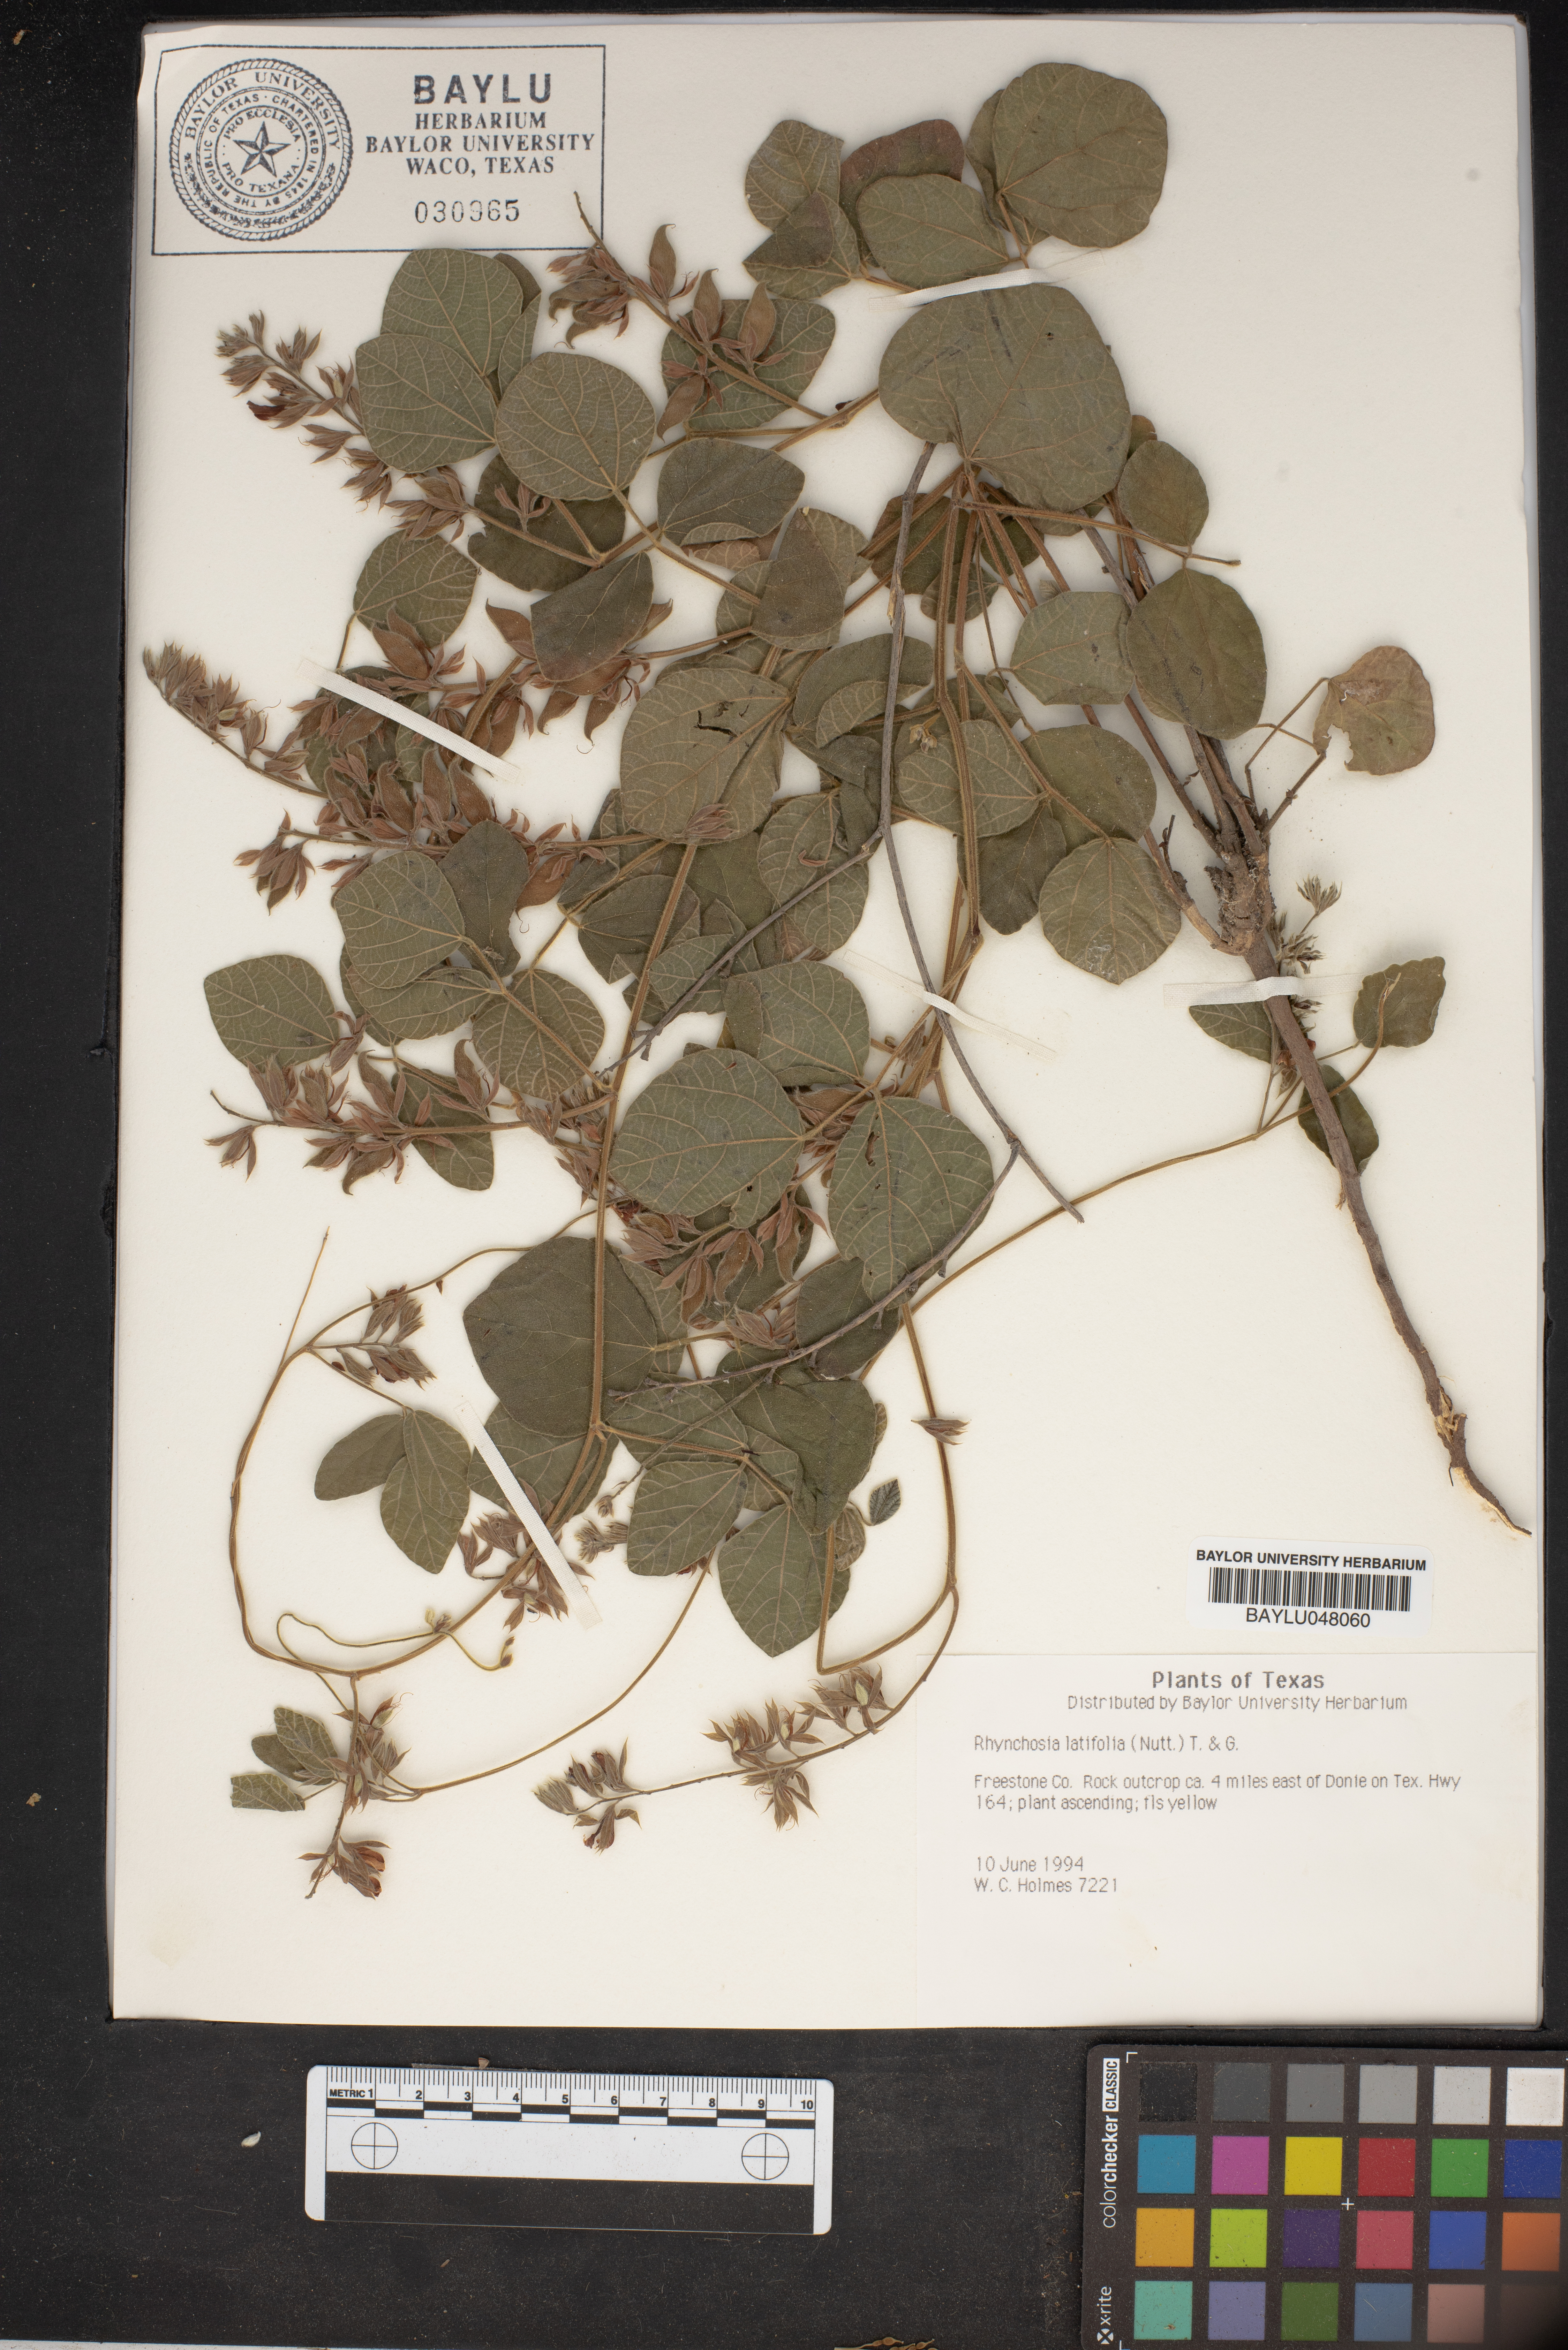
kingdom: Plantae
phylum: Tracheophyta
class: Magnoliopsida
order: Fabales
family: Fabaceae
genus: Rhynchosia
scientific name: Rhynchosia latifolia
